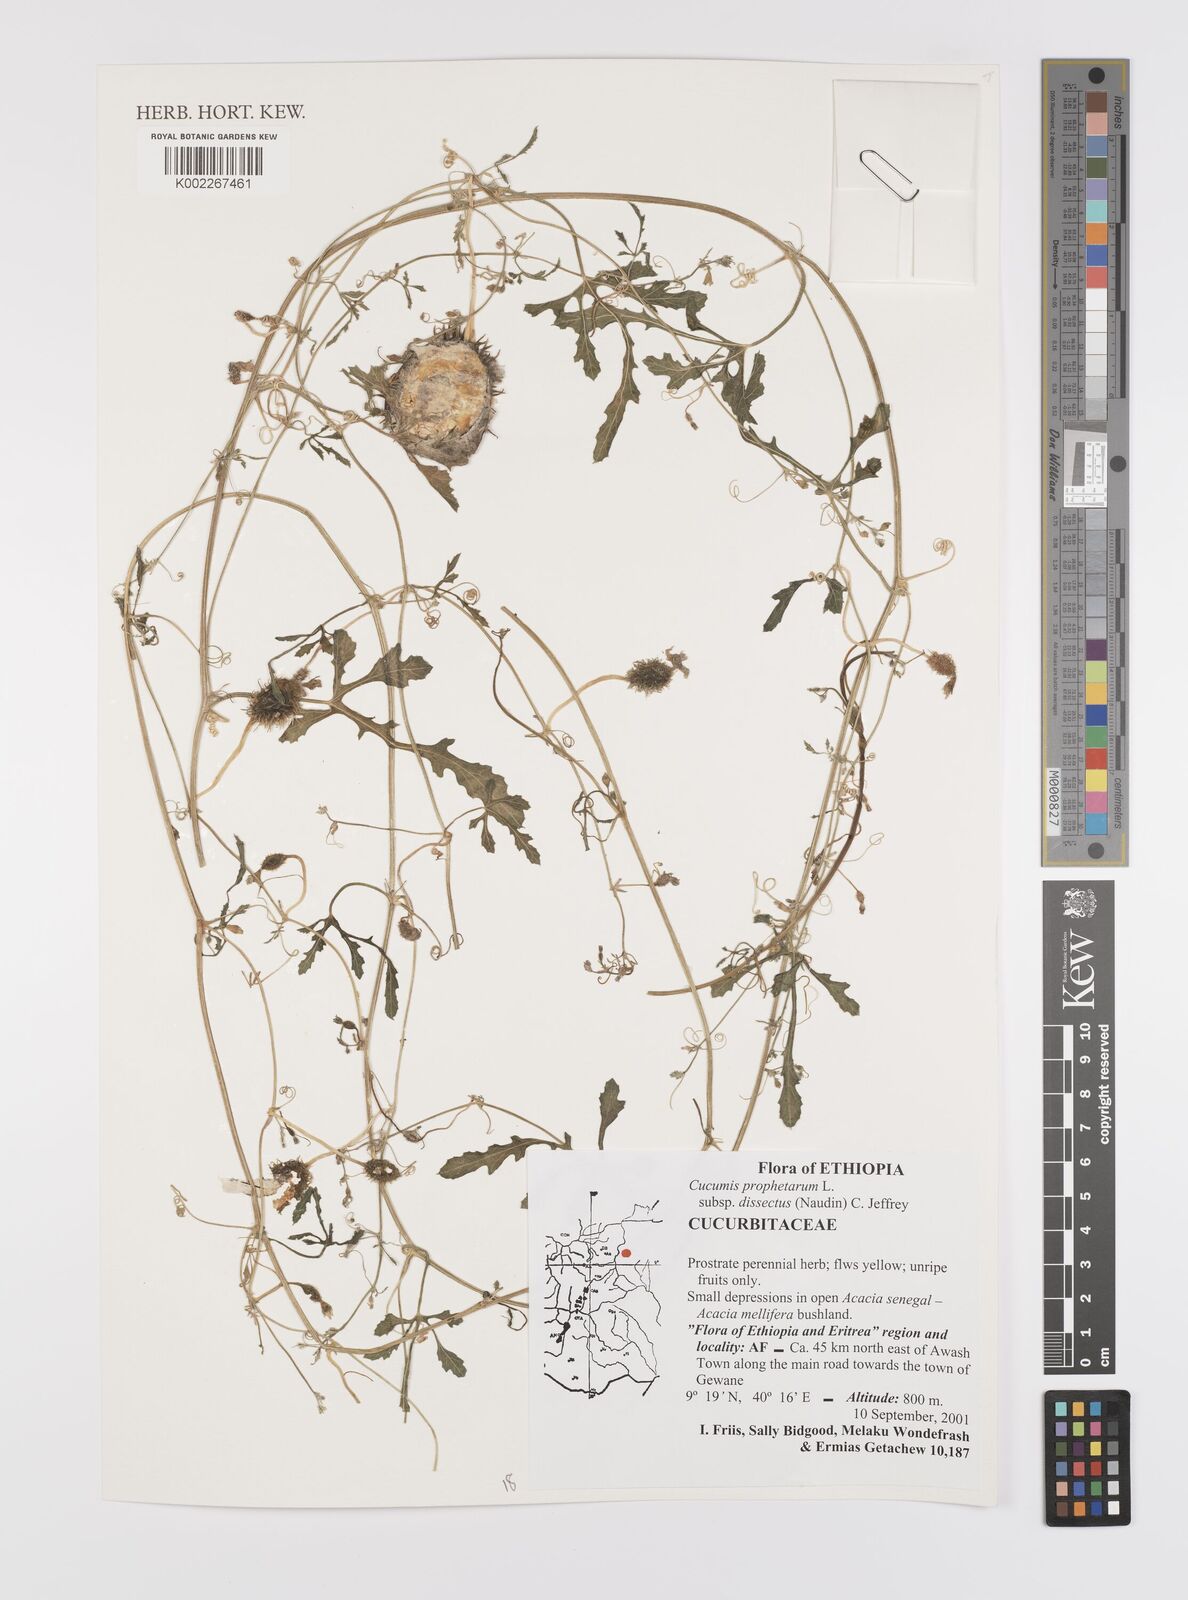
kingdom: Plantae
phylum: Tracheophyta
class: Magnoliopsida
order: Cucurbitales
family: Cucurbitaceae
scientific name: Cucurbitaceae
